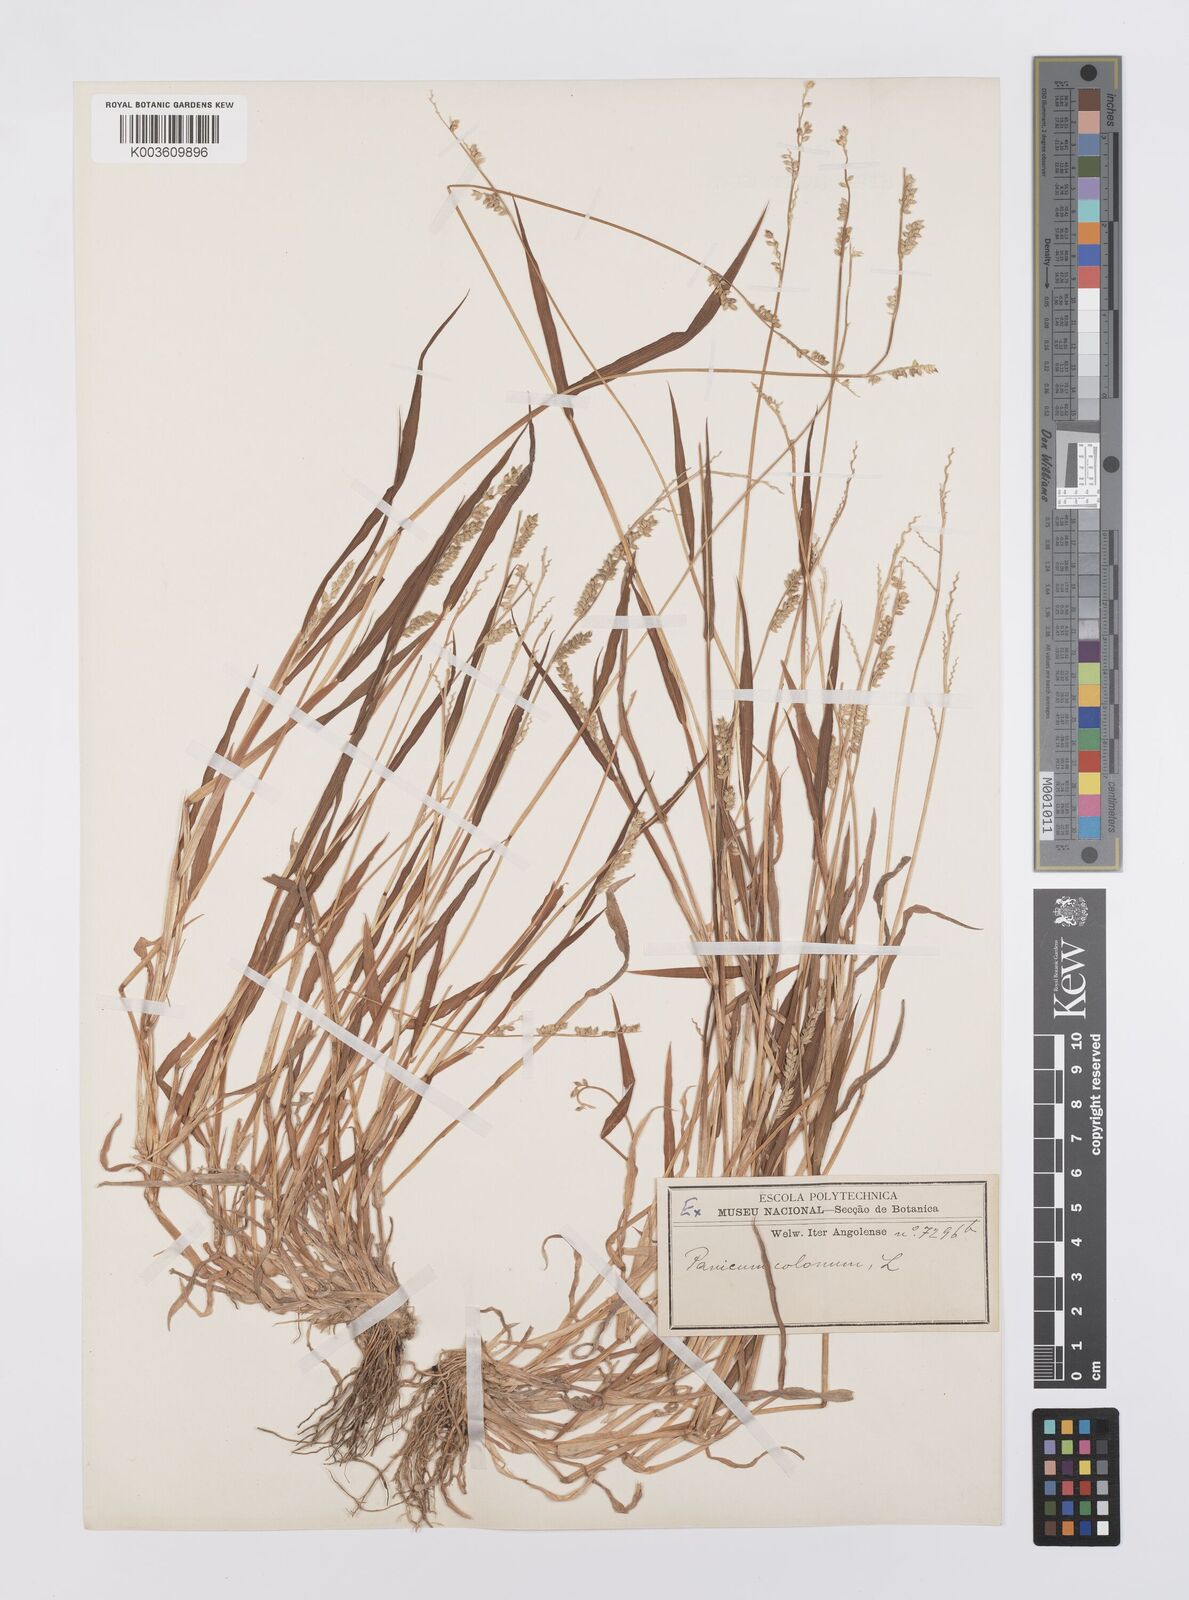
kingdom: Plantae
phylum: Tracheophyta
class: Liliopsida
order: Poales
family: Poaceae
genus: Echinochloa
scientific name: Echinochloa colonum
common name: Jungle rice
